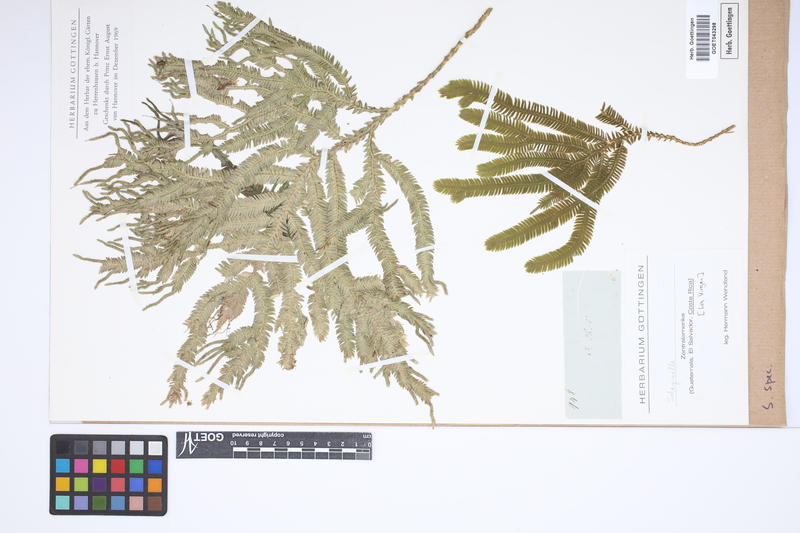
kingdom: Plantae
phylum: Tracheophyta
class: Lycopodiopsida
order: Selaginellales
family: Selaginellaceae
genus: Selaginella
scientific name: Selaginella
